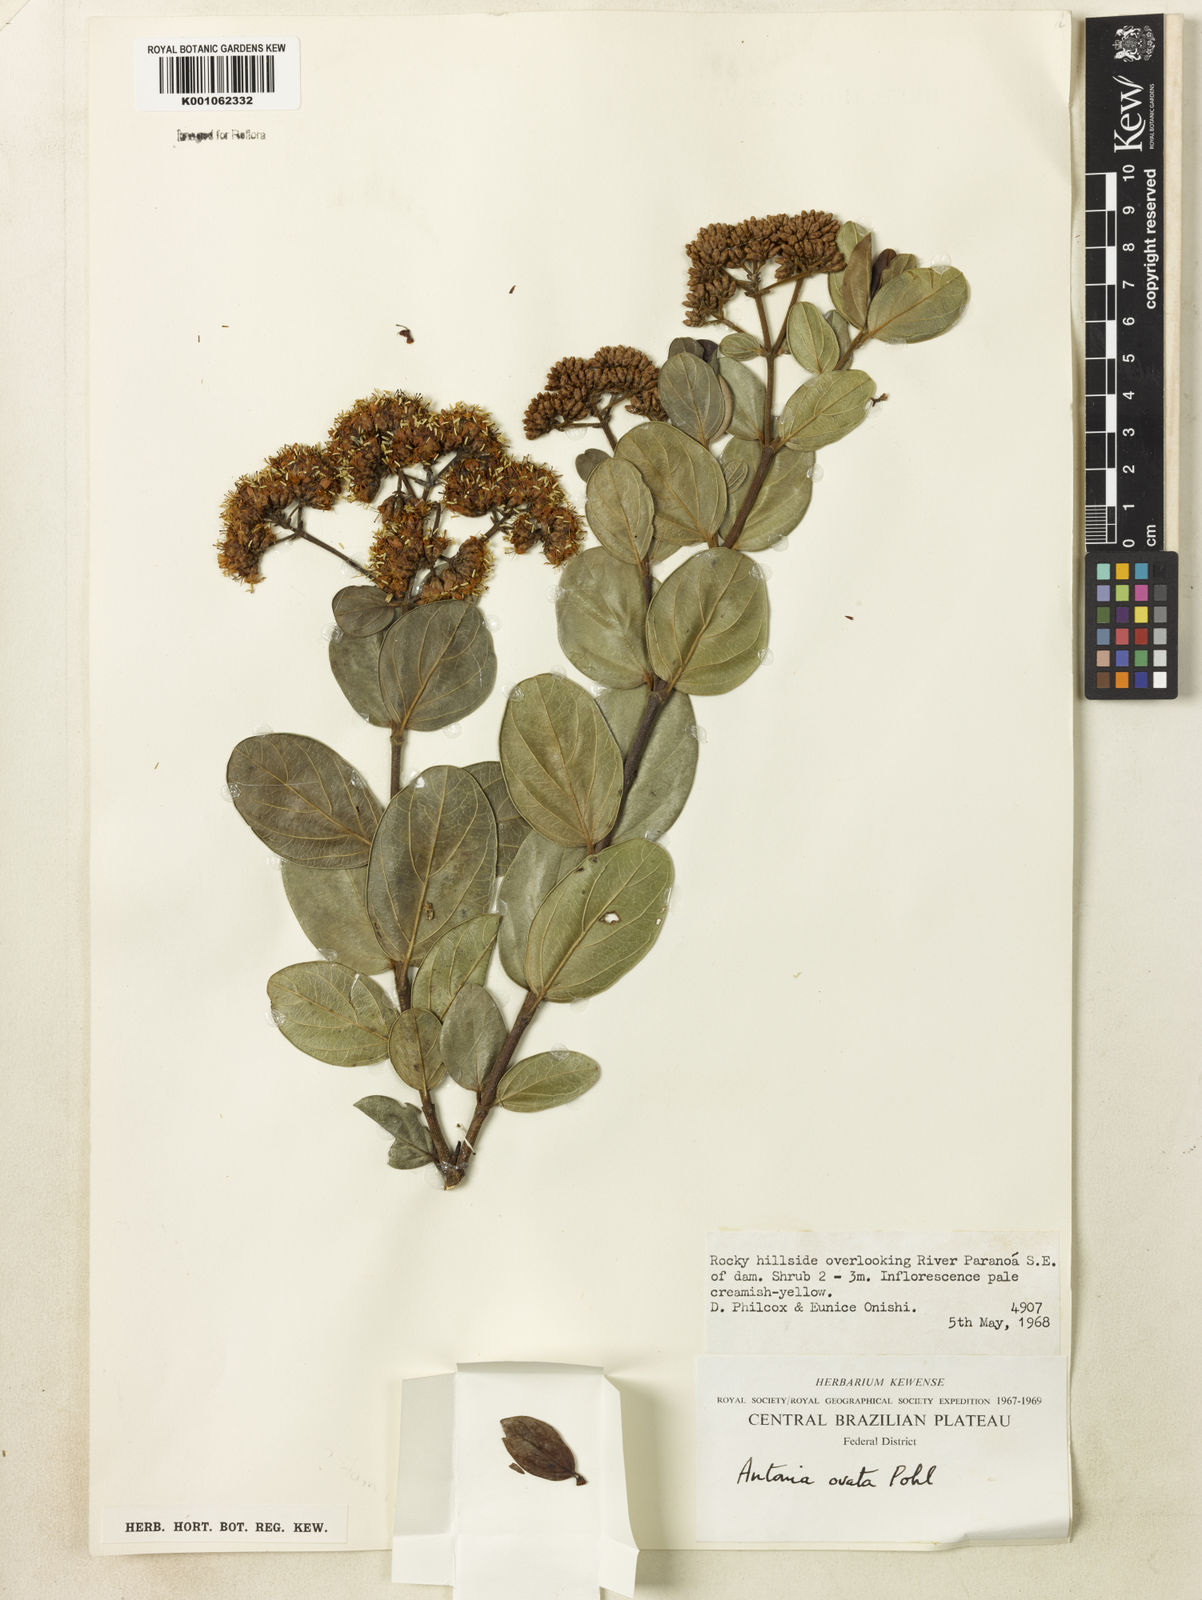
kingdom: Plantae
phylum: Tracheophyta
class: Magnoliopsida
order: Gentianales
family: Loganiaceae
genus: Antonia
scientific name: Antonia ovata
